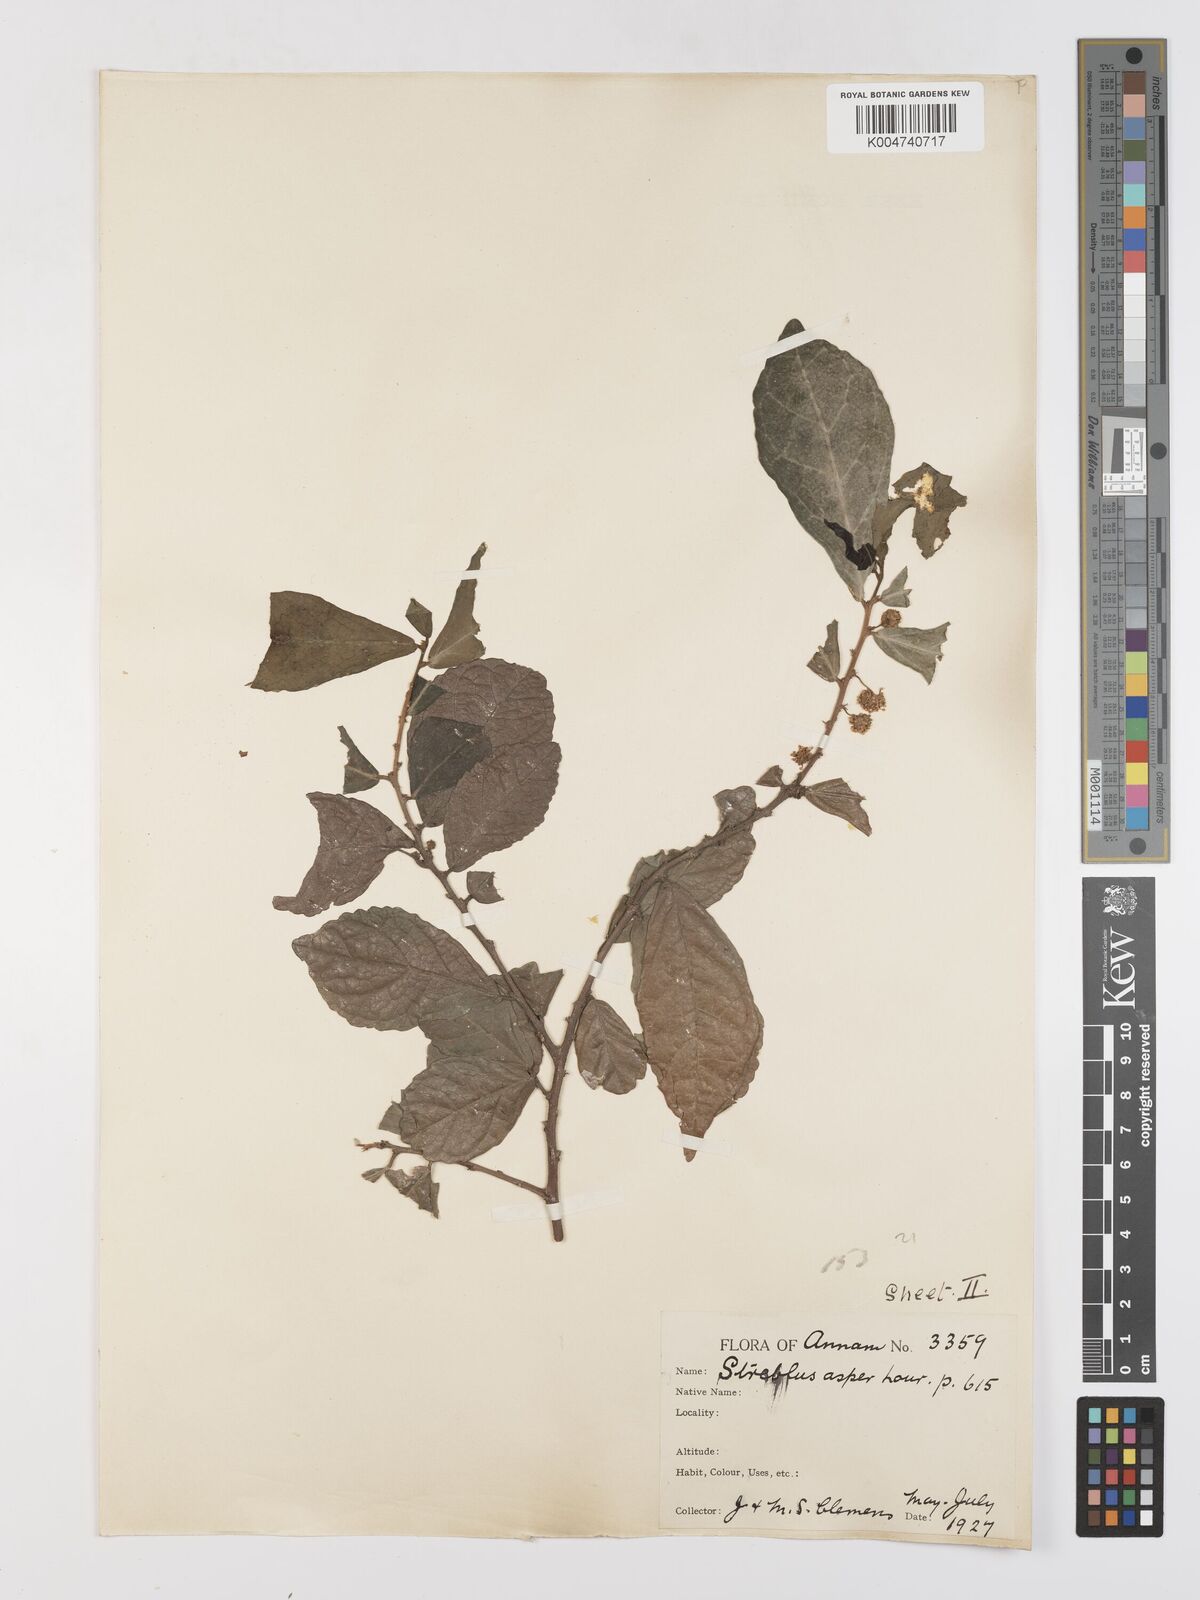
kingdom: Plantae
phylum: Tracheophyta
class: Magnoliopsida
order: Rosales
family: Moraceae
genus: Streblus
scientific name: Streblus asper
